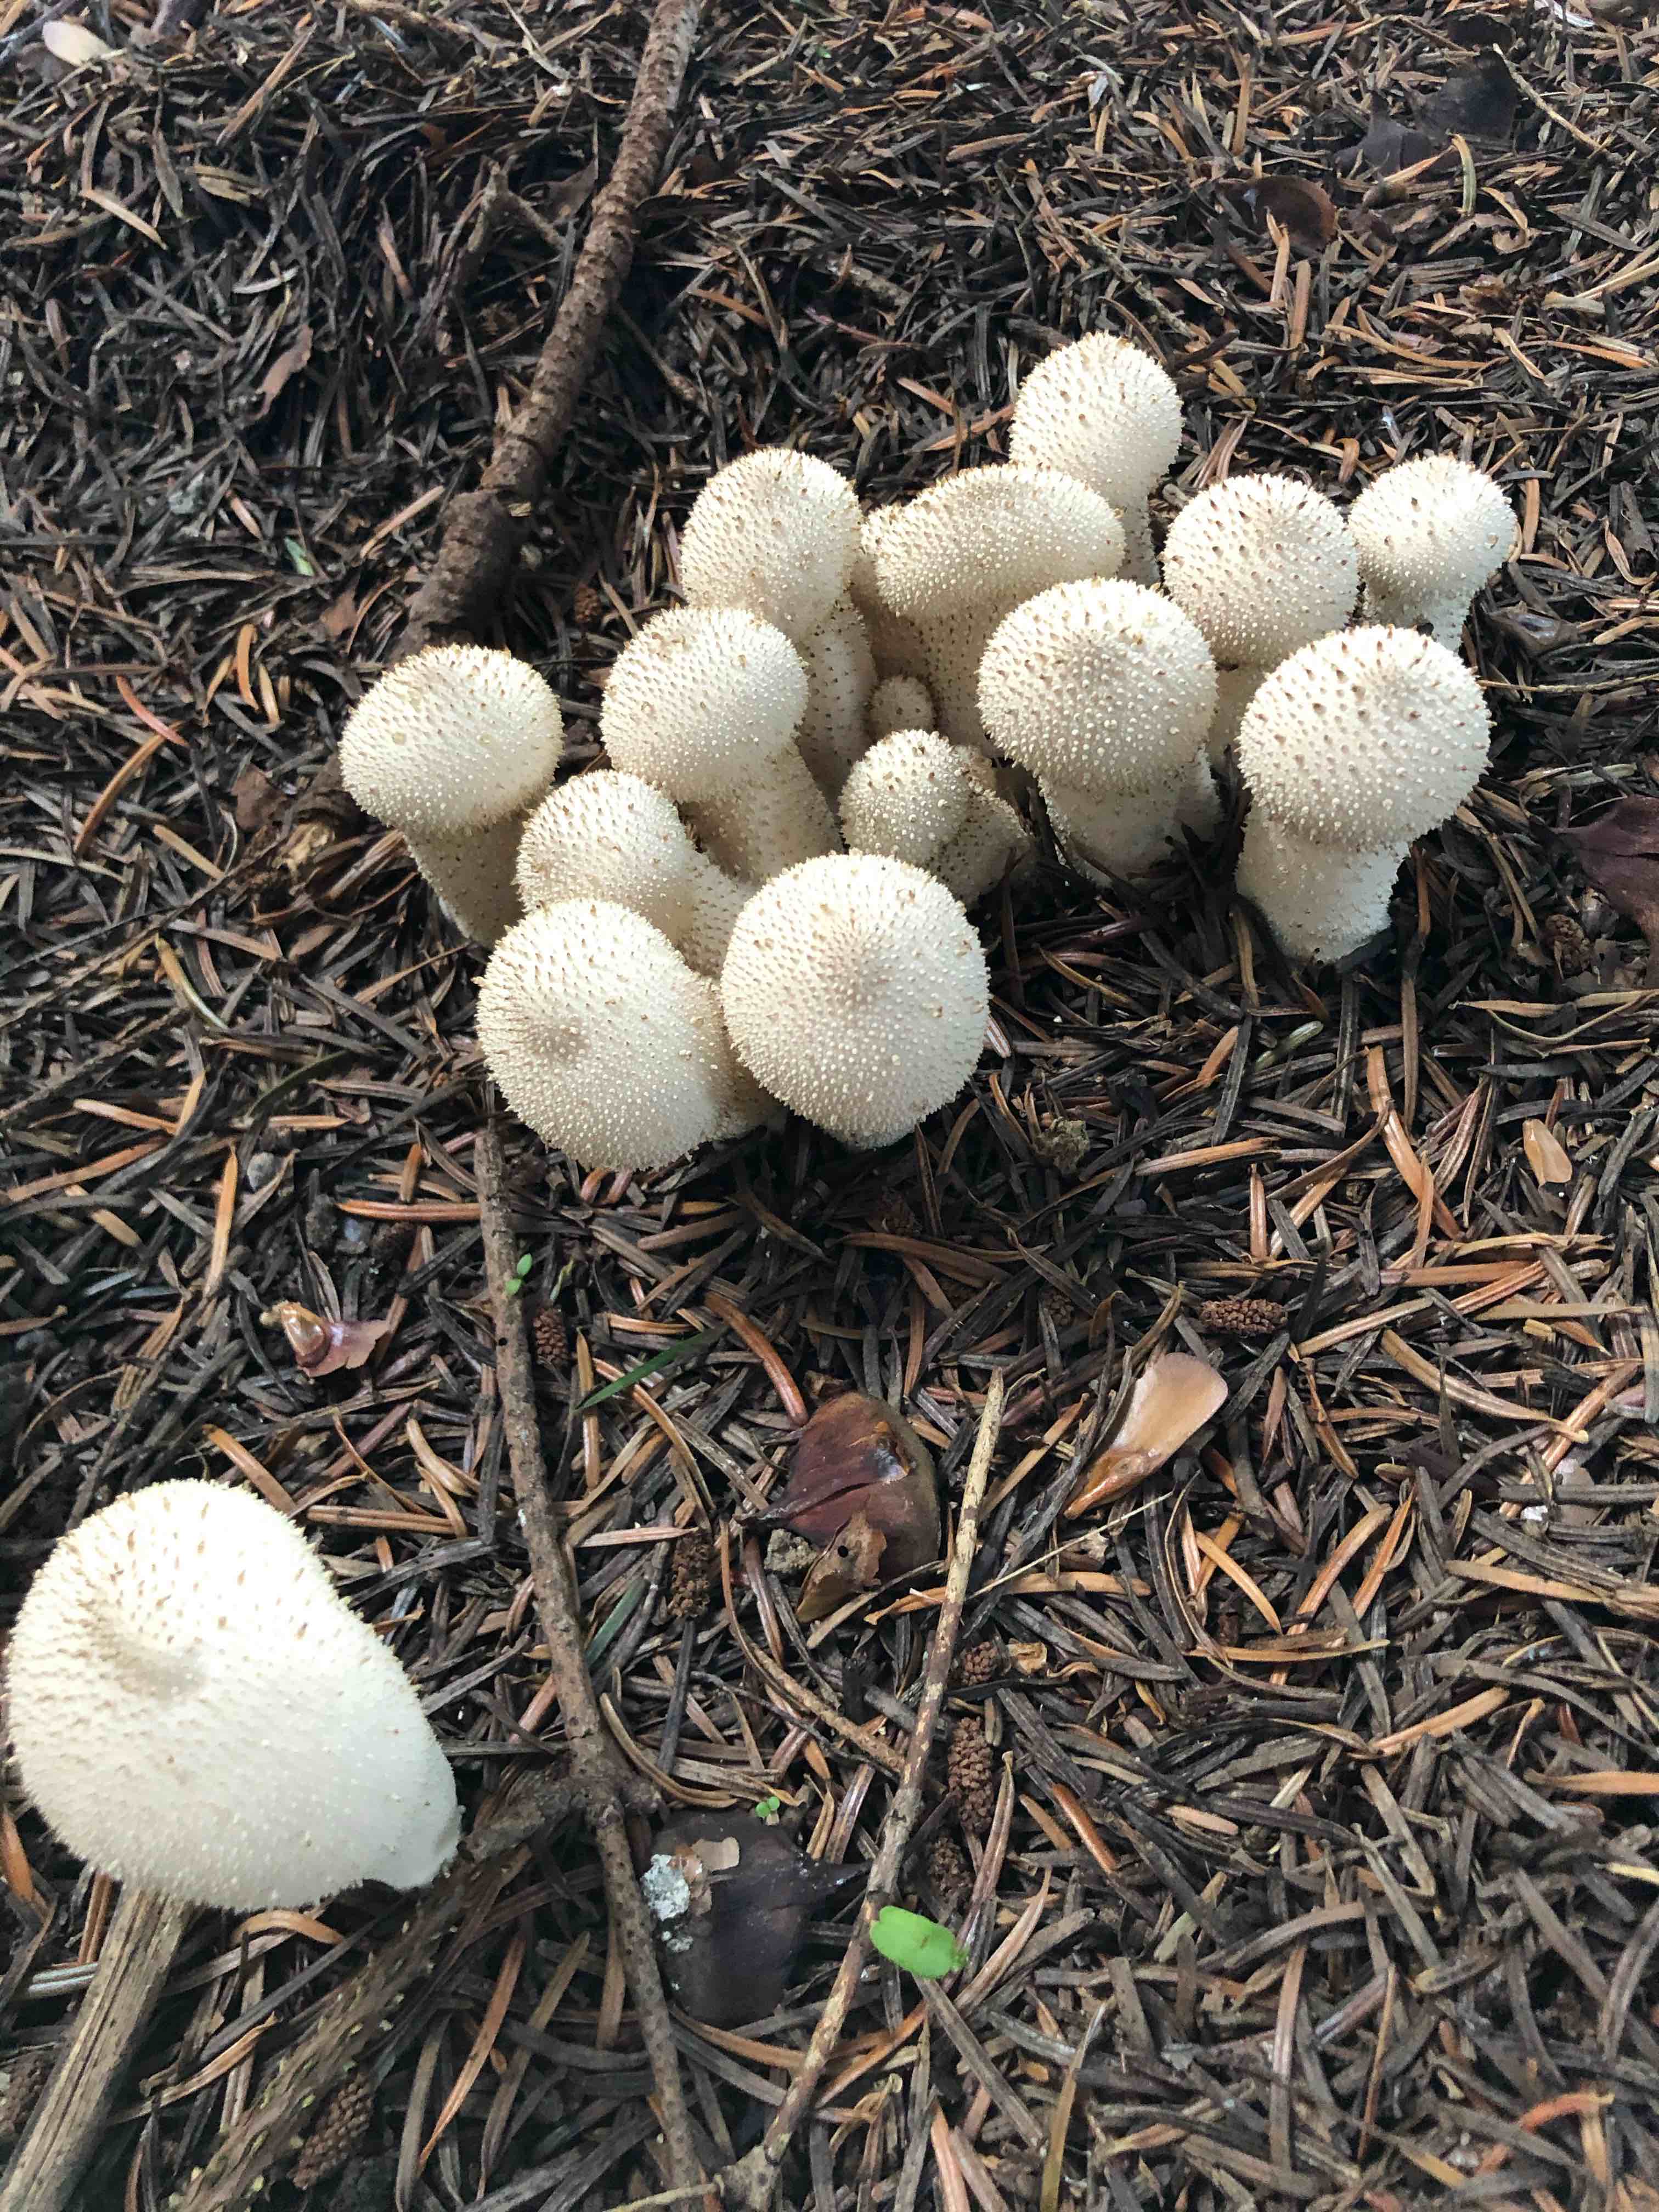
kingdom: Fungi
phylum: Basidiomycota
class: Agaricomycetes
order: Agaricales
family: Lycoperdaceae
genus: Lycoperdon
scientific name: Lycoperdon perlatum
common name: krystal-støvbold
